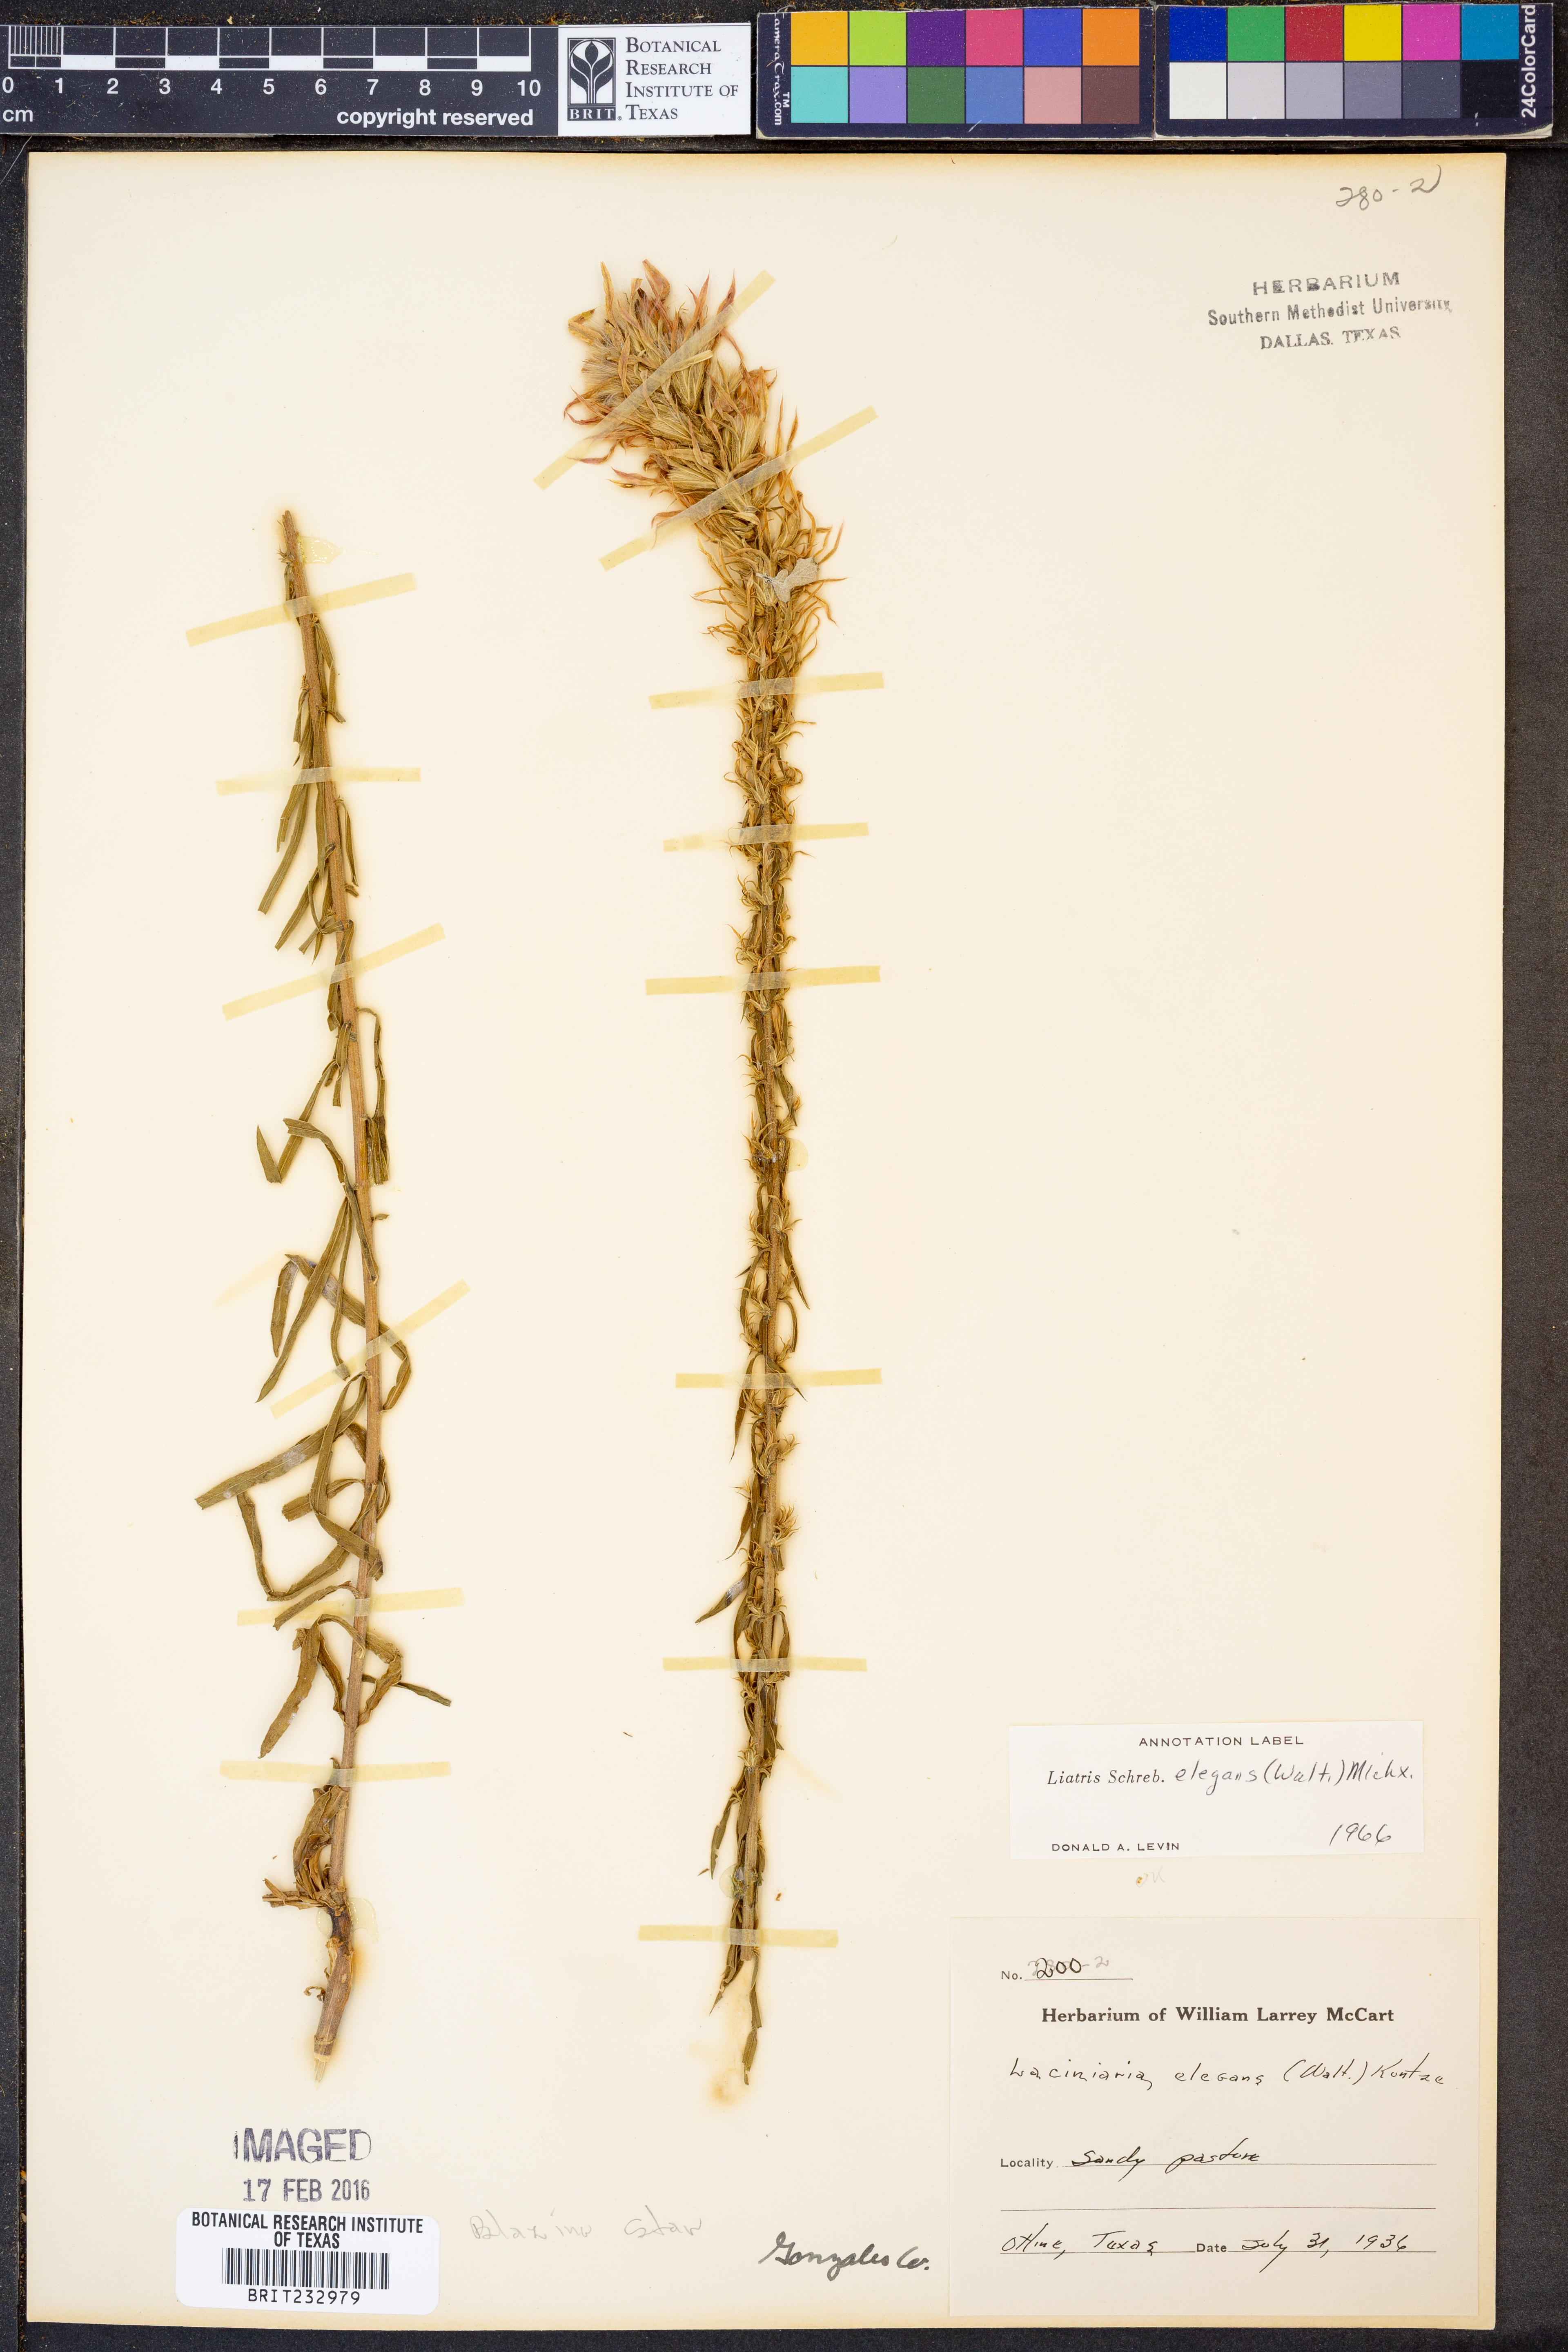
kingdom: Plantae
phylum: Tracheophyta
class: Magnoliopsida
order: Asterales
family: Asteraceae
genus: Liatris
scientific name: Liatris elegans
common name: Pinkscale gayfeather
